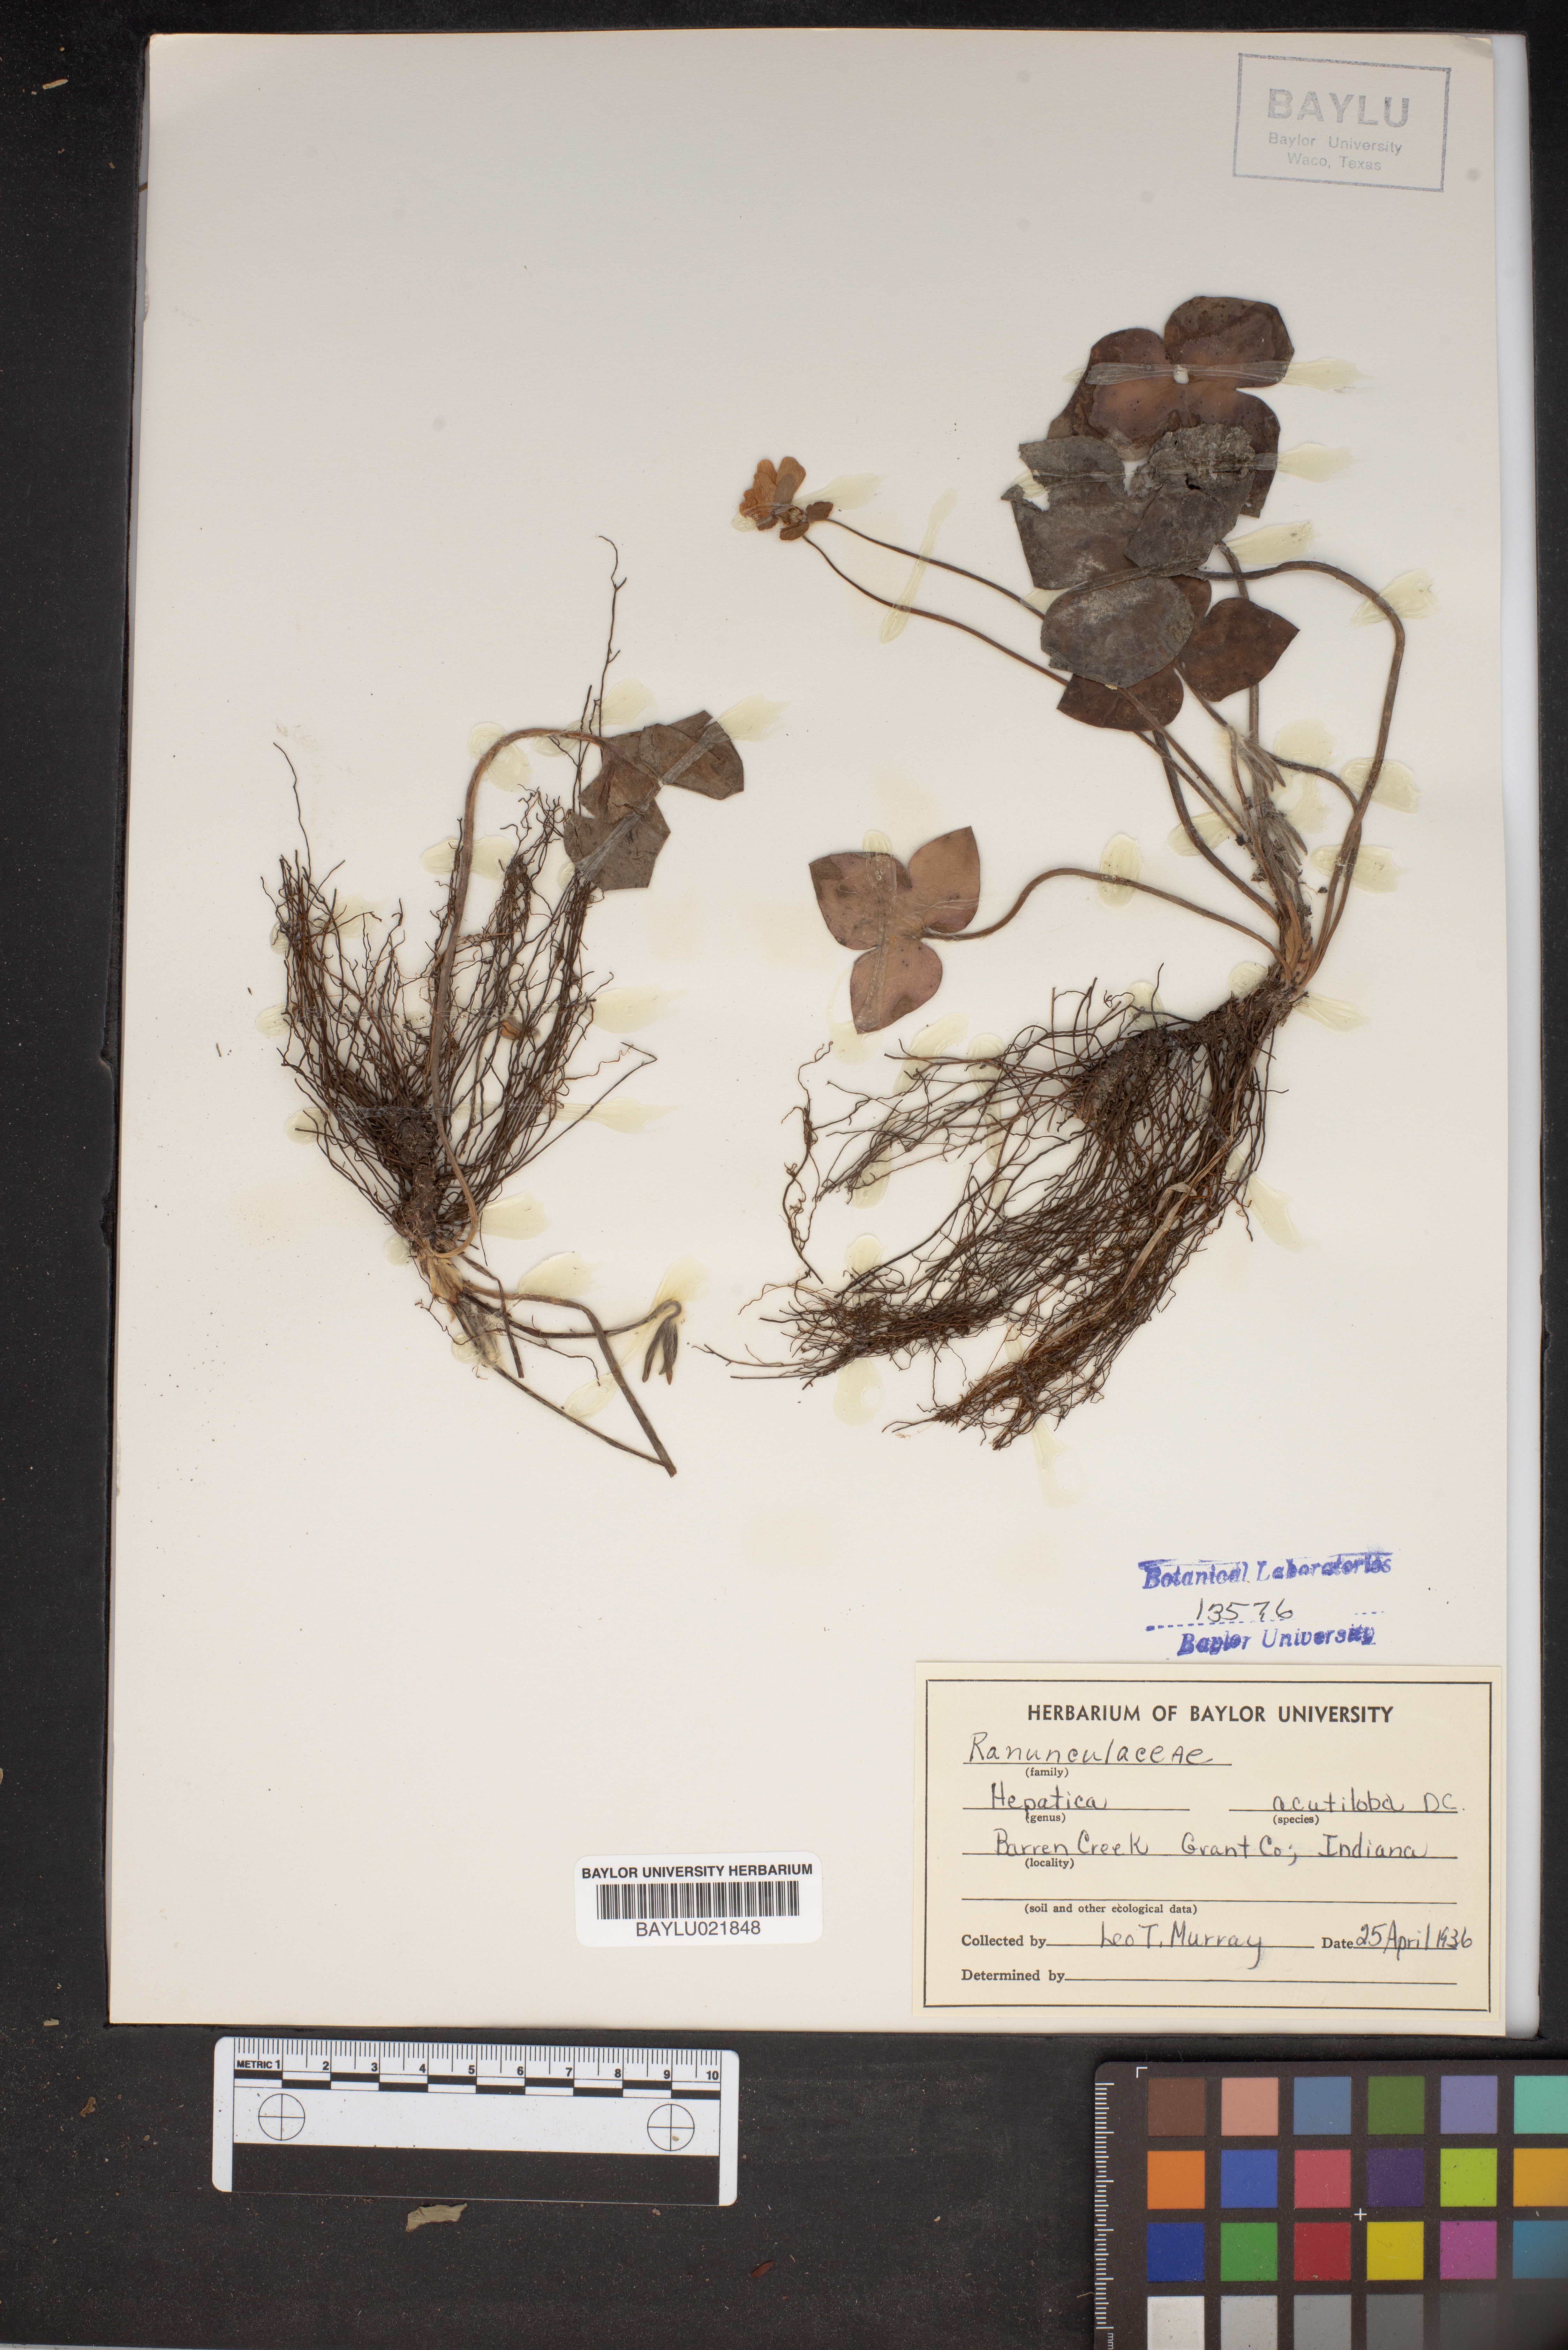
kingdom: Plantae
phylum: Tracheophyta
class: Magnoliopsida
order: Ranunculales
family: Ranunculaceae
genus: Hepatica
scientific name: Hepatica acutiloba
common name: Sharp-lobed hepatica
